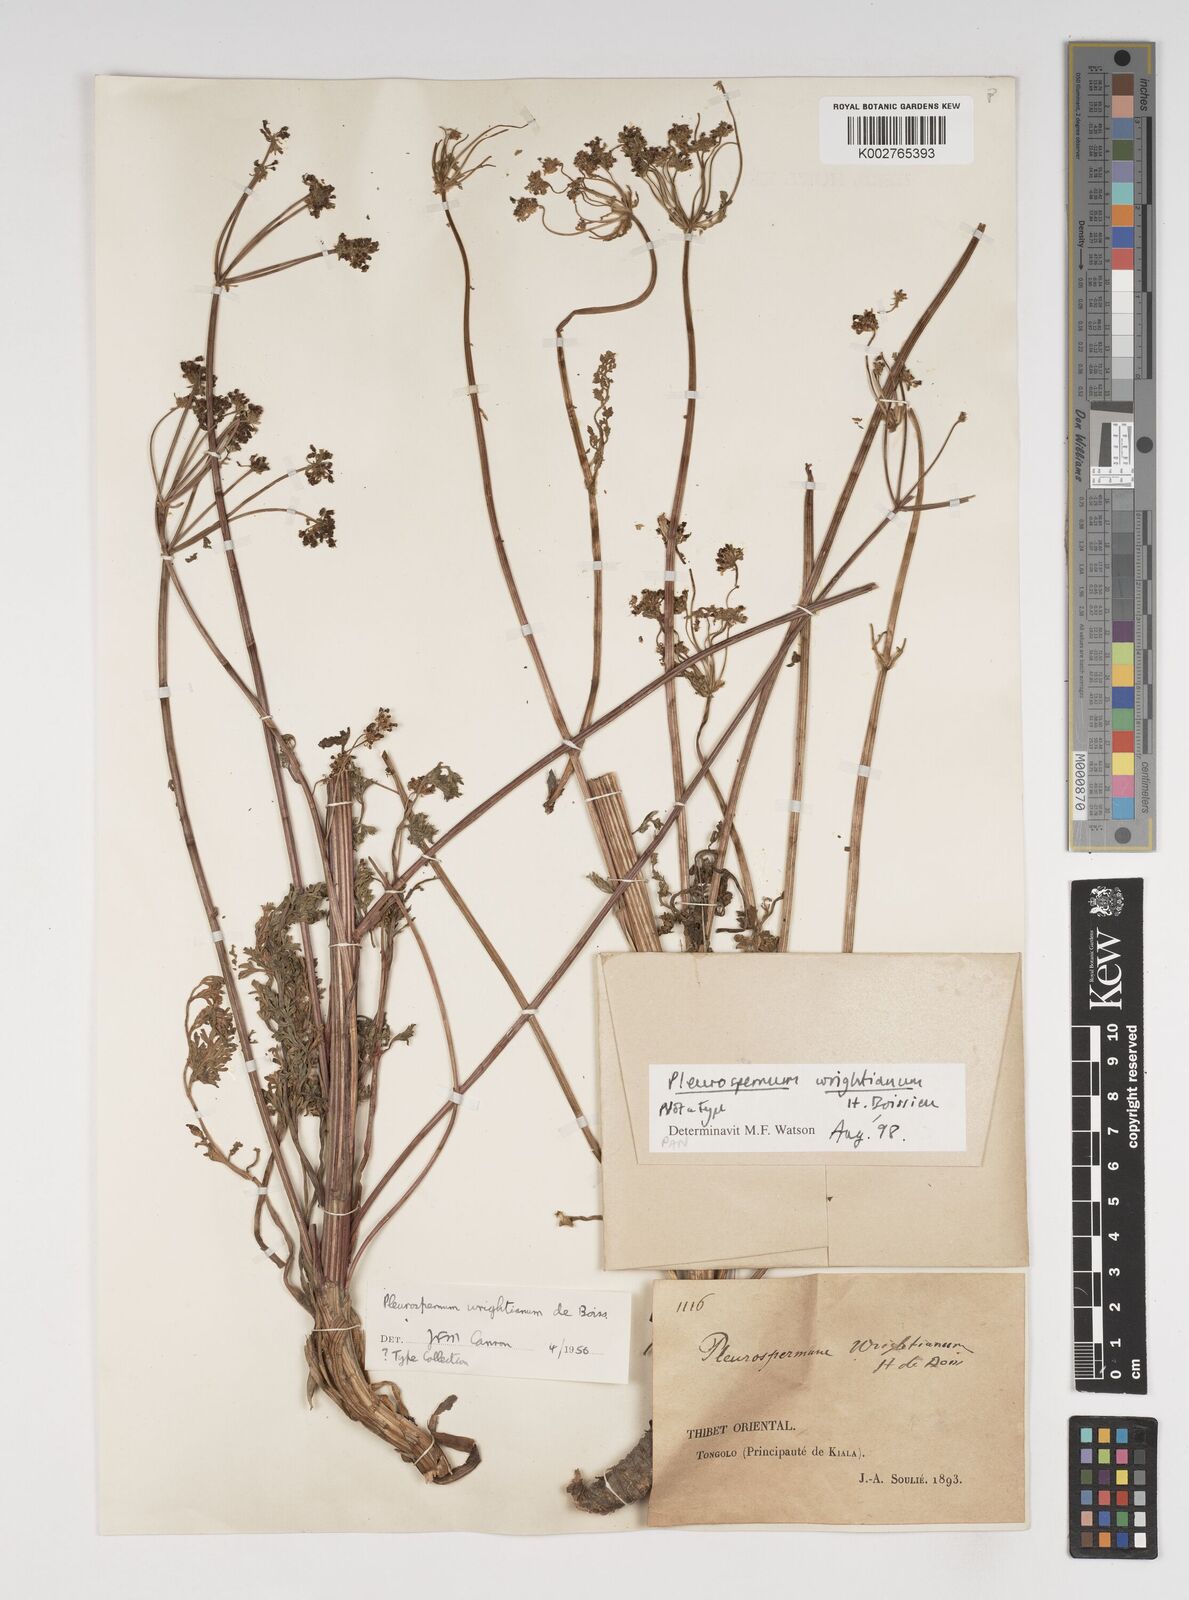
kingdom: Plantae
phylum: Tracheophyta
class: Magnoliopsida
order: Apiales
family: Apiaceae
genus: Hymenidium
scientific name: Hymenidium wrightianum
